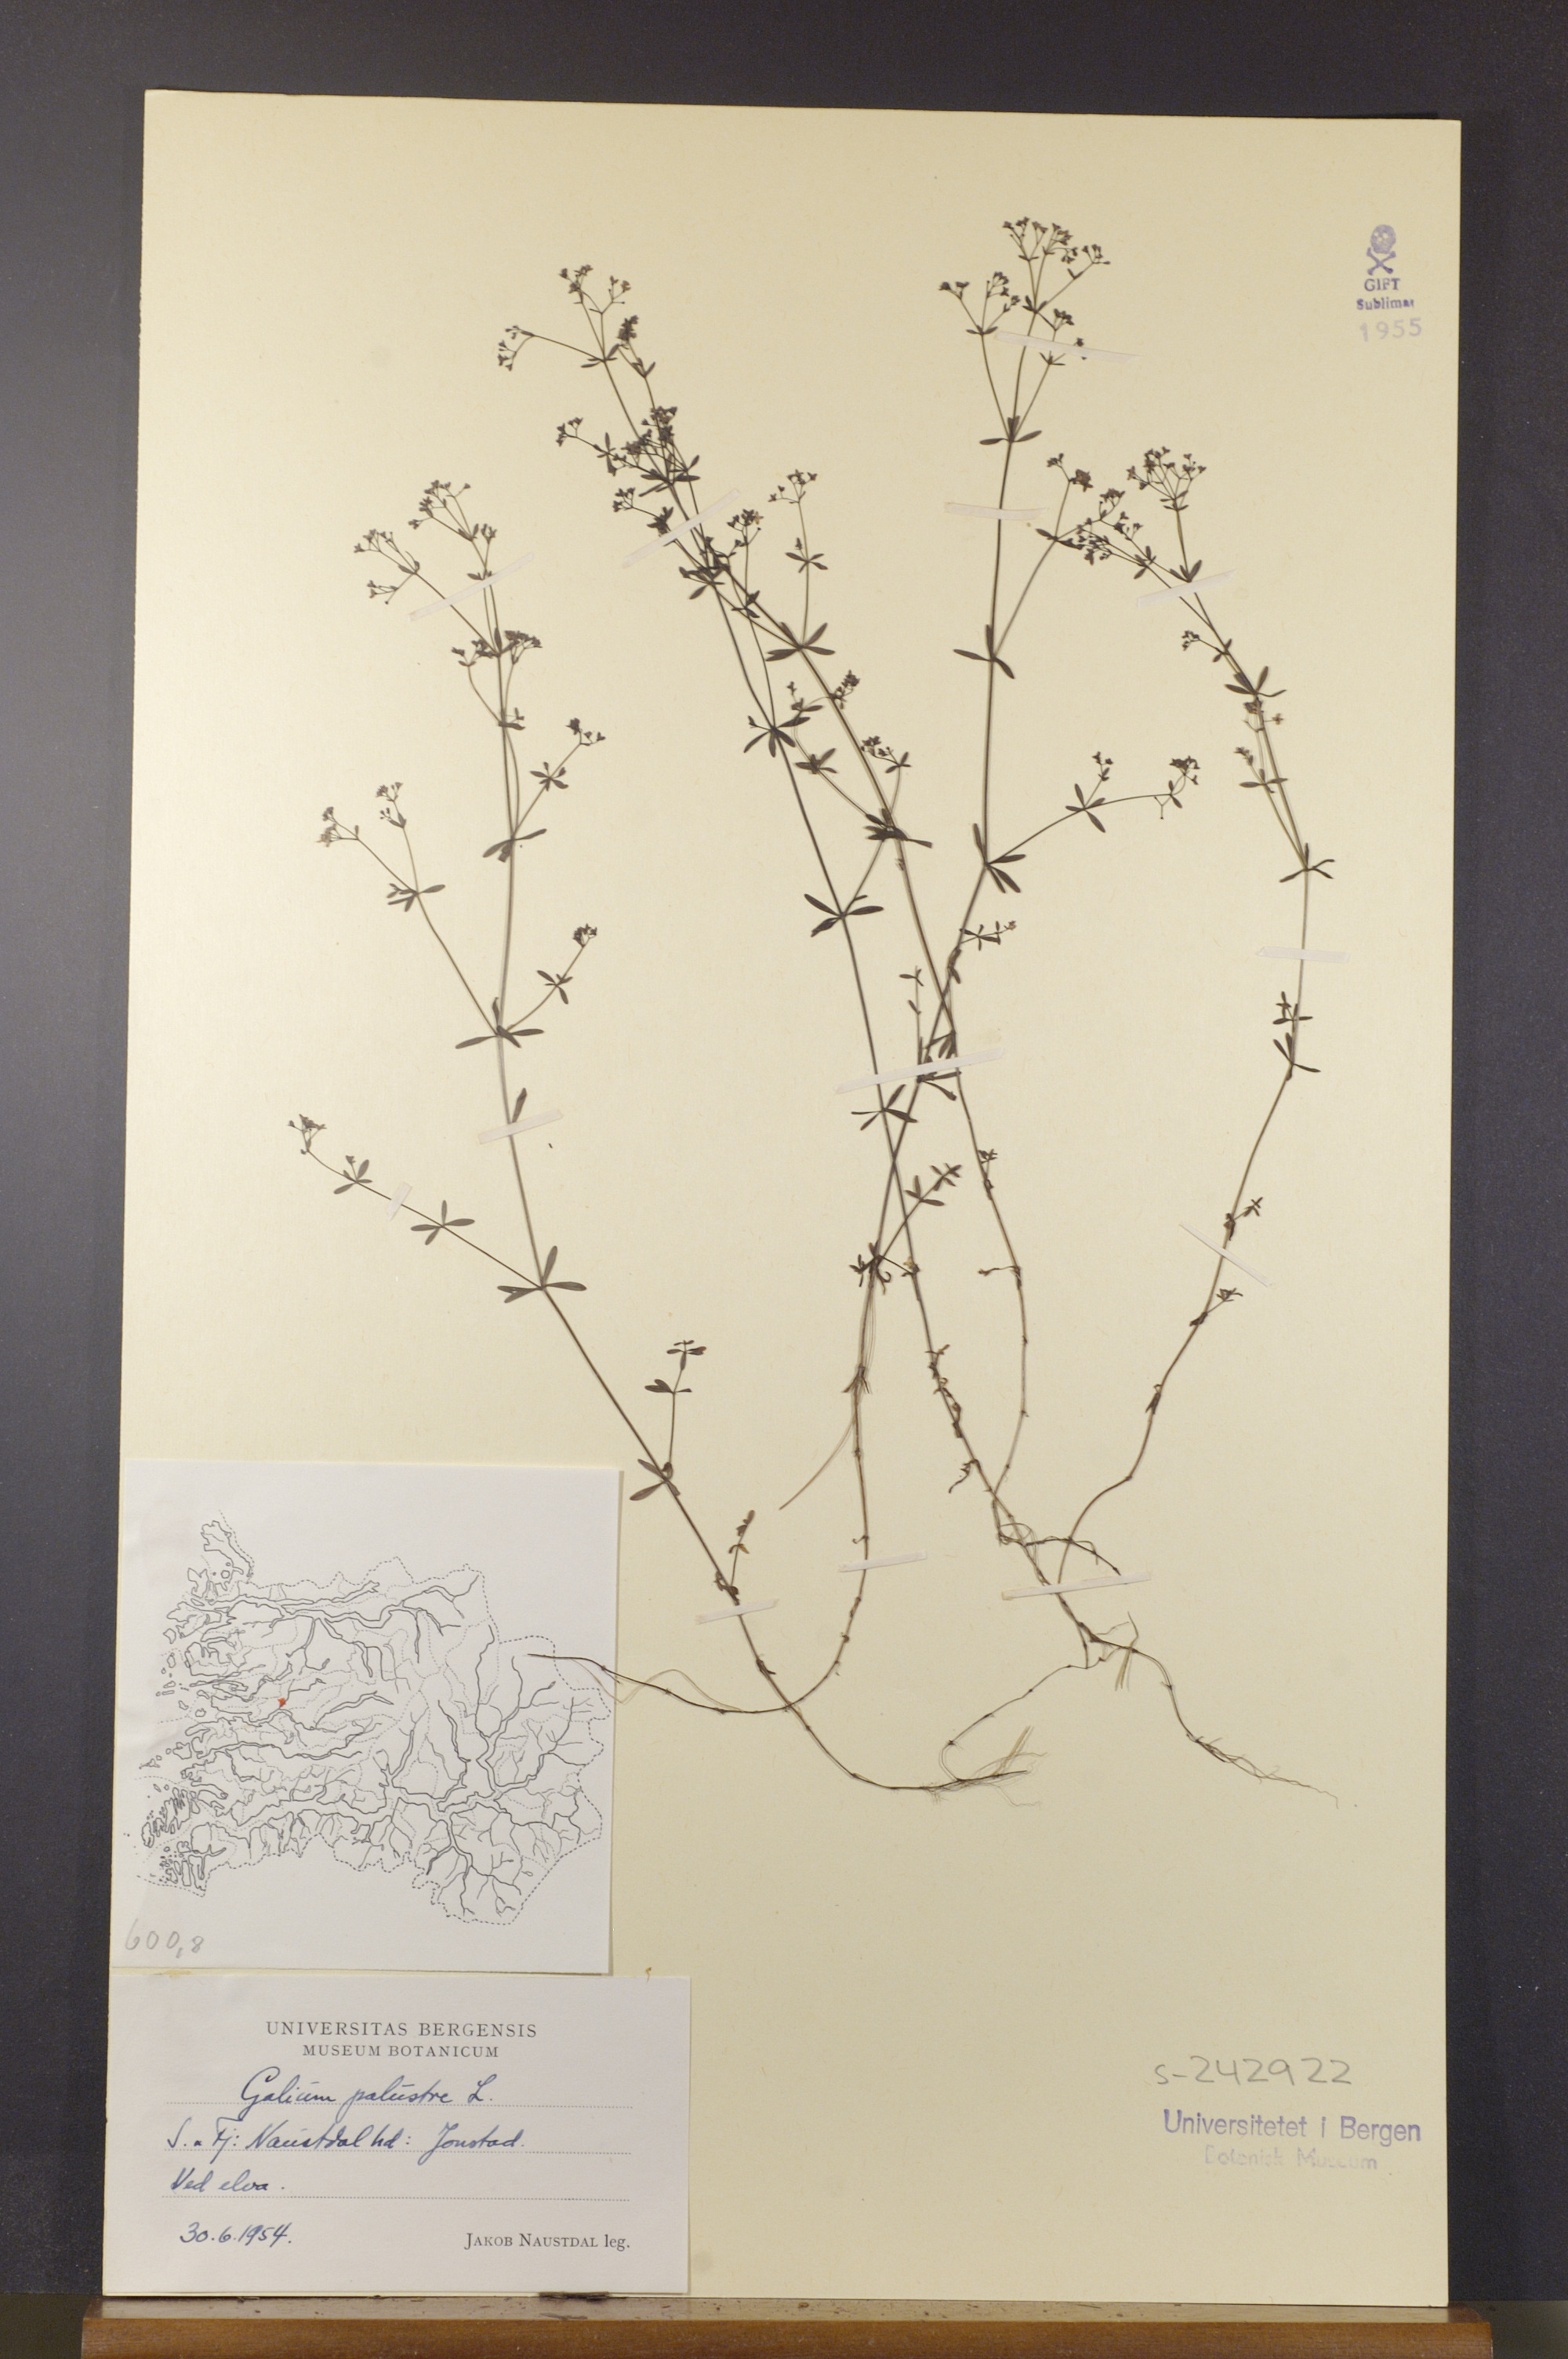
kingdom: Plantae
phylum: Tracheophyta
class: Magnoliopsida
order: Gentianales
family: Rubiaceae
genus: Galium
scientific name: Galium palustre
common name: Common marsh-bedstraw
